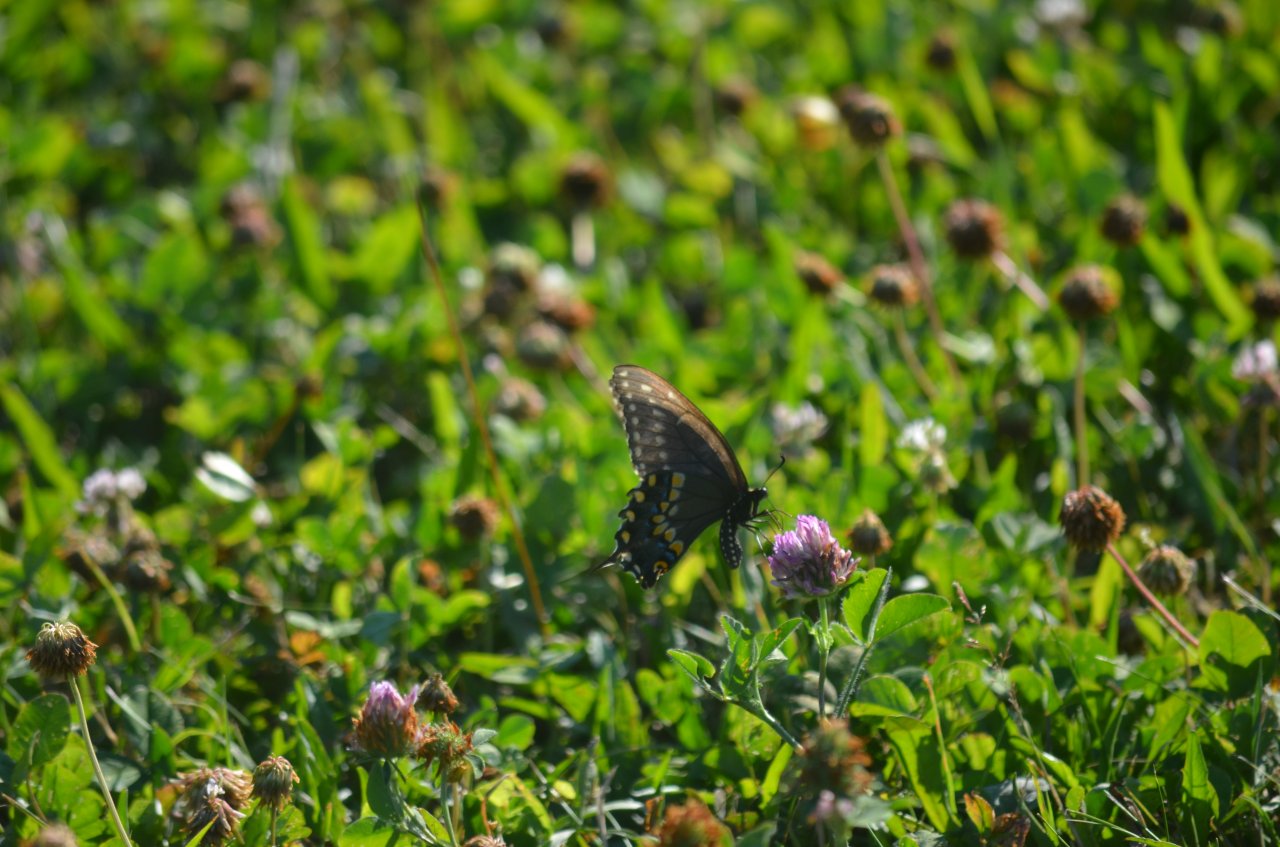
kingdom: Animalia
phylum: Arthropoda
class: Insecta
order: Lepidoptera
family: Papilionidae
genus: Papilio
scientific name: Papilio polyxenes
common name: Black Swallowtail
